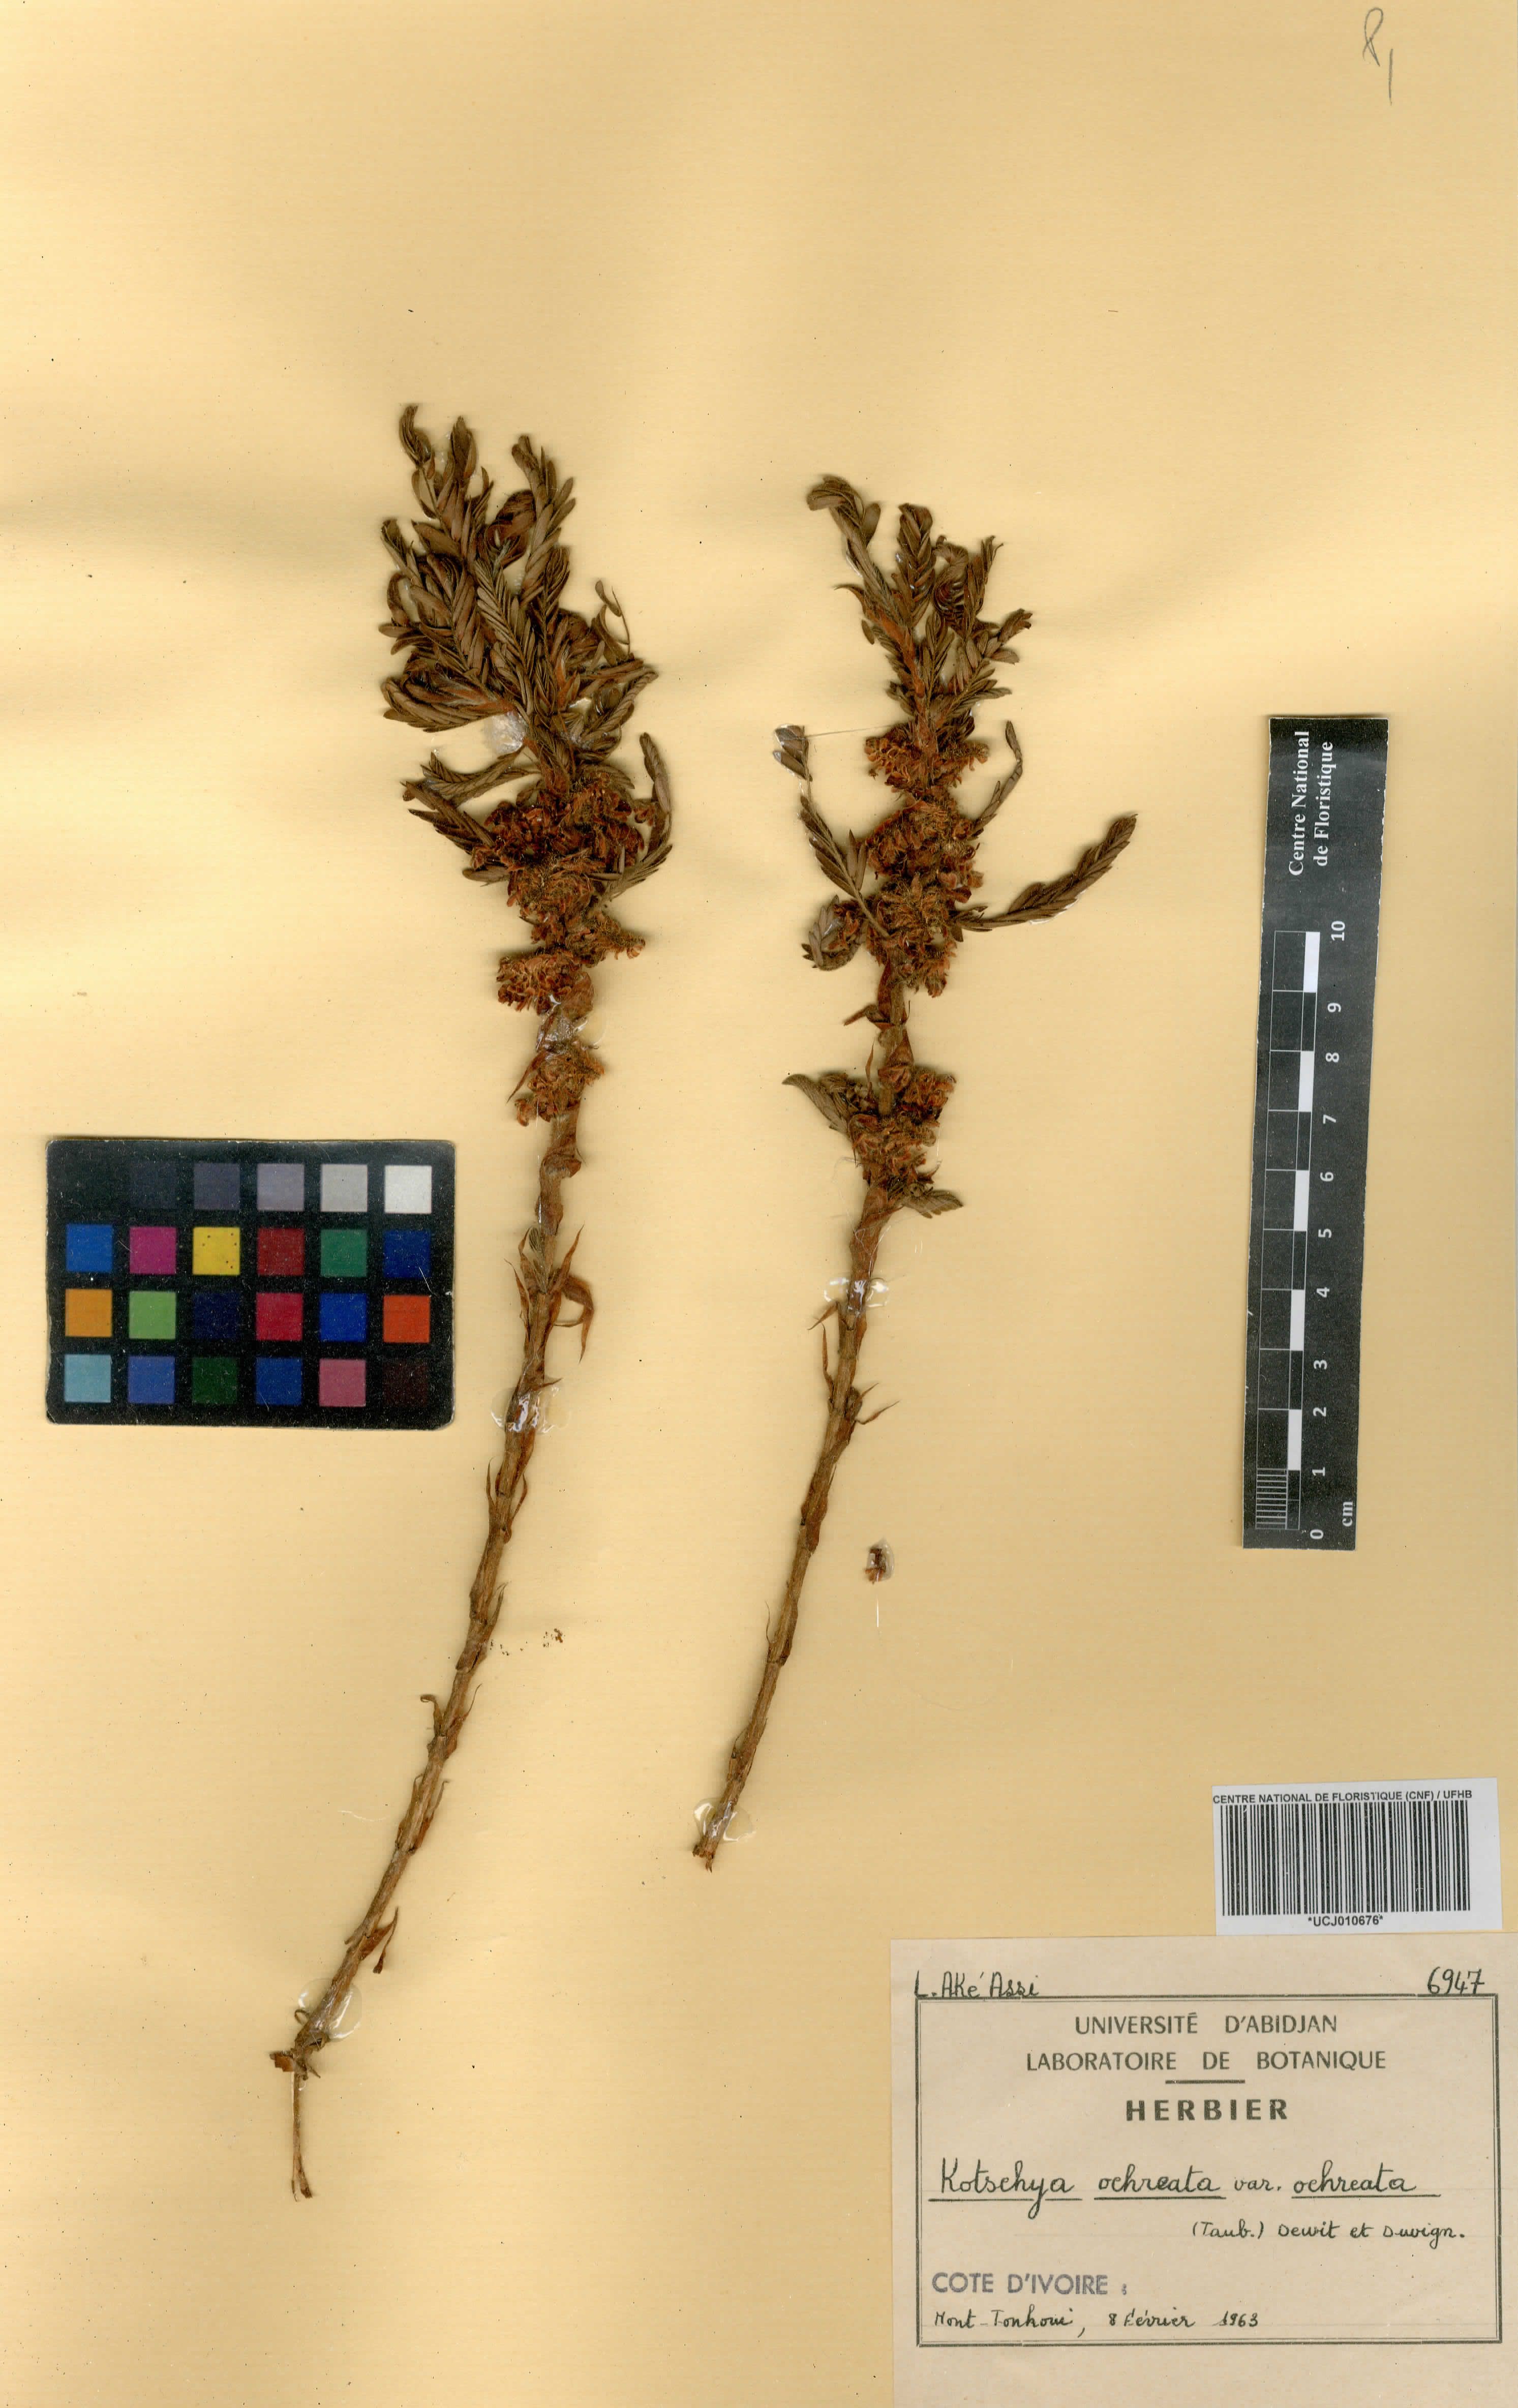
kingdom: Plantae
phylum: Tracheophyta
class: Magnoliopsida
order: Fabales
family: Fabaceae
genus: Kotschya
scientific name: Kotschya ochreata
